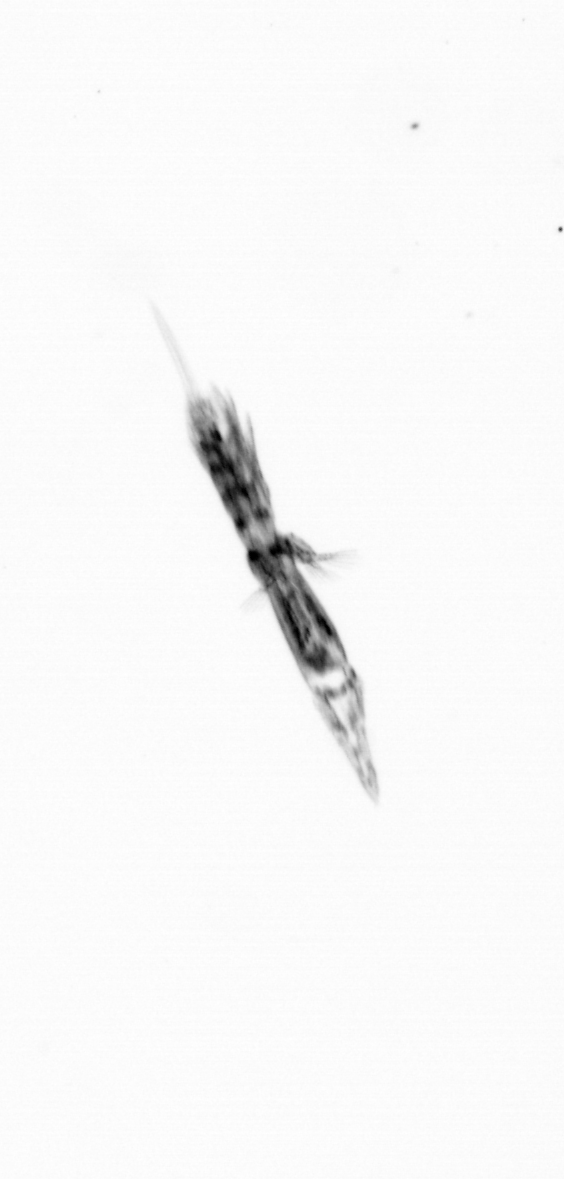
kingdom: Animalia
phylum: Arthropoda
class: Copepoda
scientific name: Copepoda
